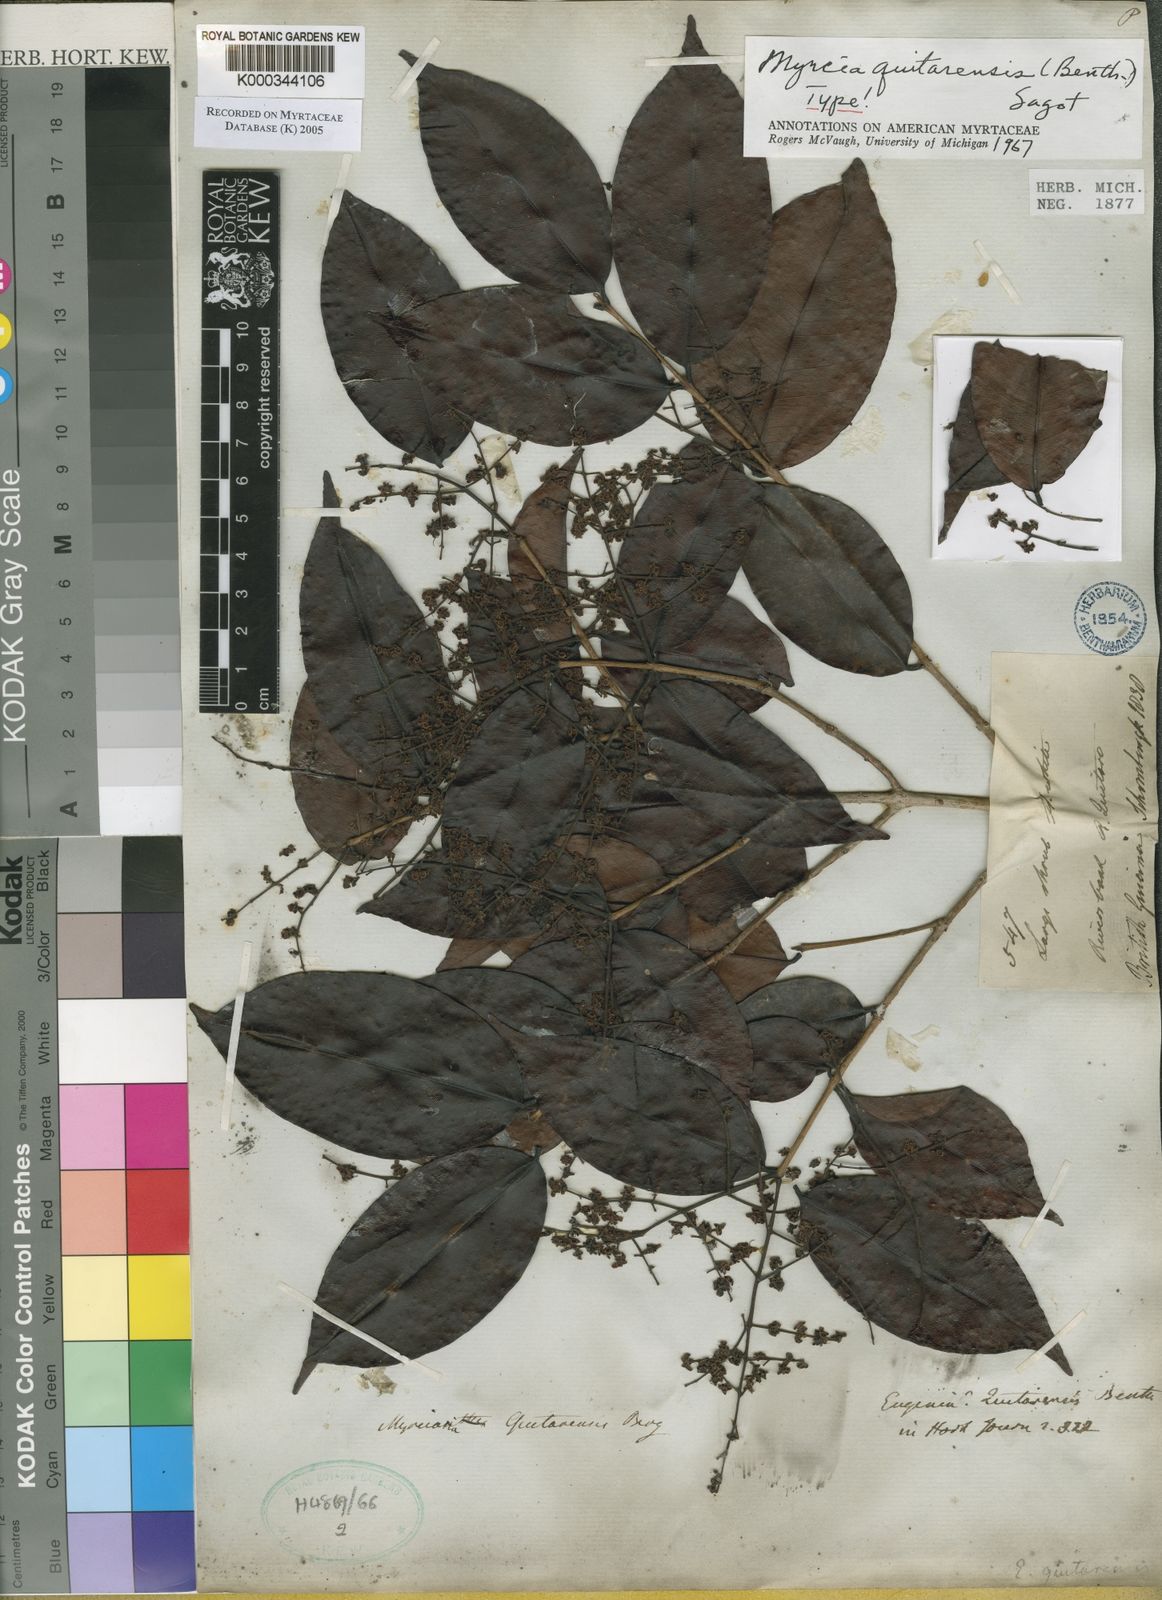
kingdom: Plantae
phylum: Tracheophyta
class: Magnoliopsida
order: Myrtales
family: Myrtaceae
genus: Myrcia
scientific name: Myrcia quitarensis
